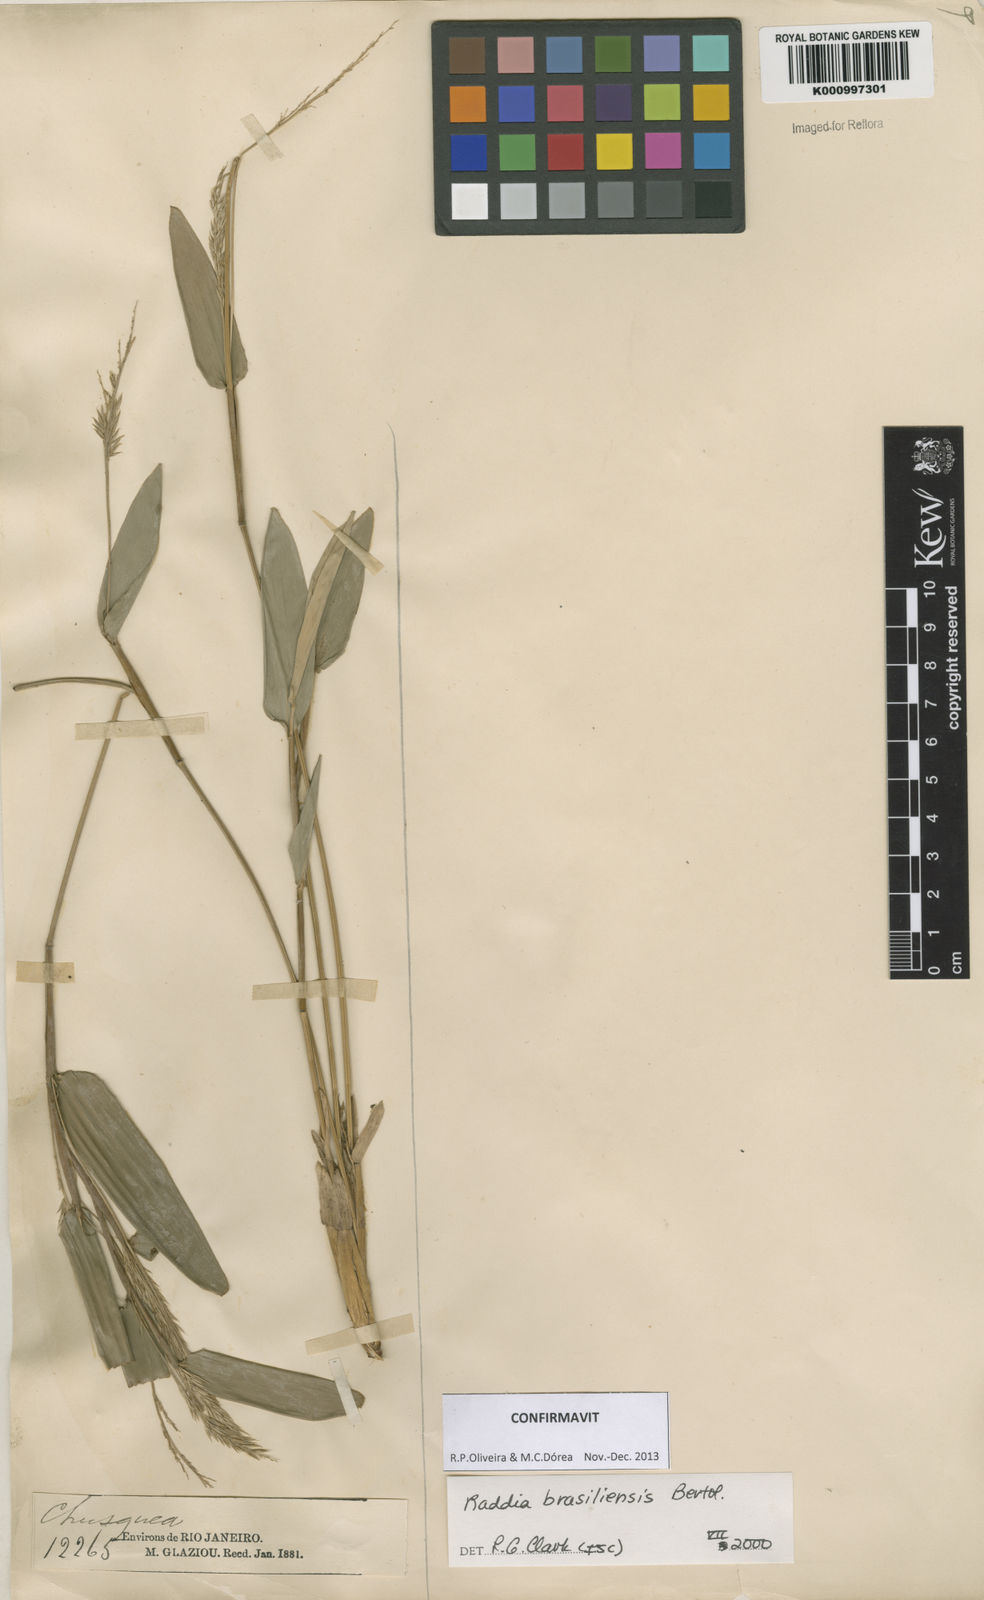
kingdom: Plantae
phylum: Tracheophyta
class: Liliopsida
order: Poales
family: Poaceae
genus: Raddia
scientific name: Raddia brasiliensis
